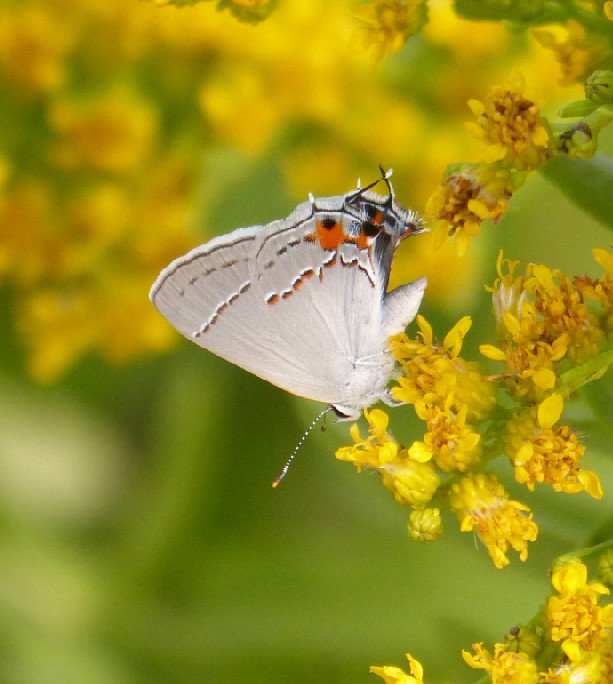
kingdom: Animalia
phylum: Arthropoda
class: Insecta
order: Lepidoptera
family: Lycaenidae
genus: Strymon
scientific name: Strymon melinus
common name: Gray Hairstreak
